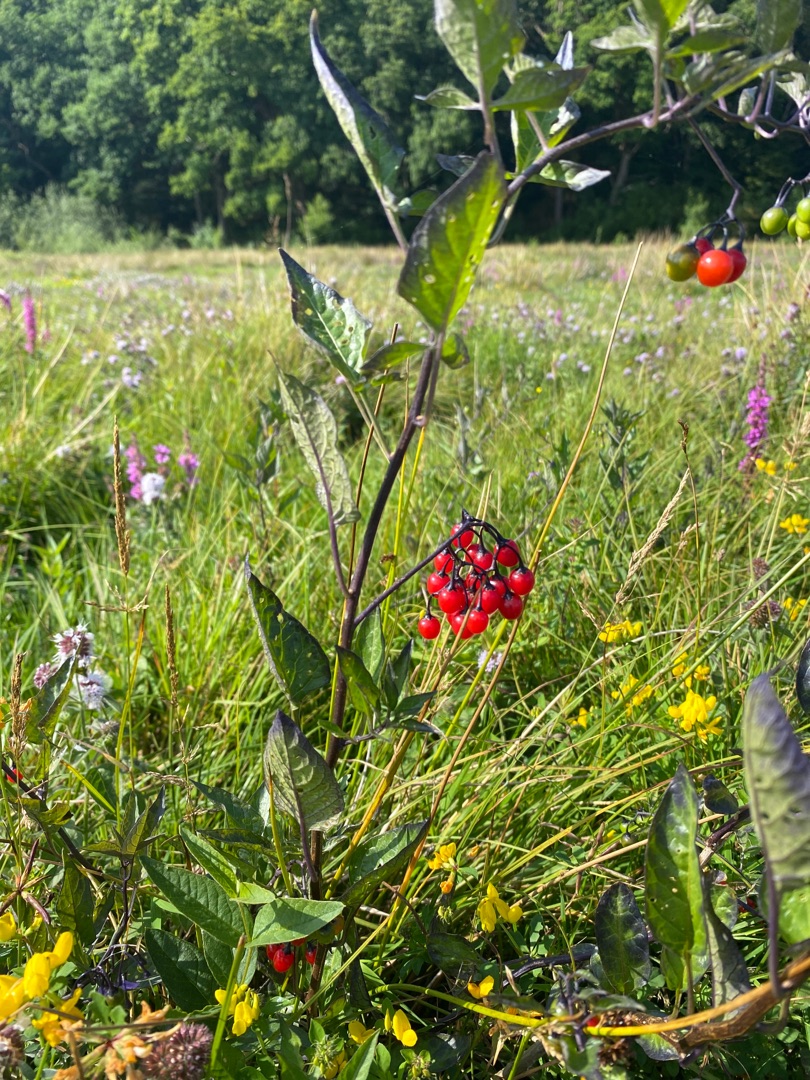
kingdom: Plantae
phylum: Tracheophyta
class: Magnoliopsida
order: Solanales
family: Solanaceae
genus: Solanum
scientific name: Solanum dulcamara
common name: Bittersød natskygge
